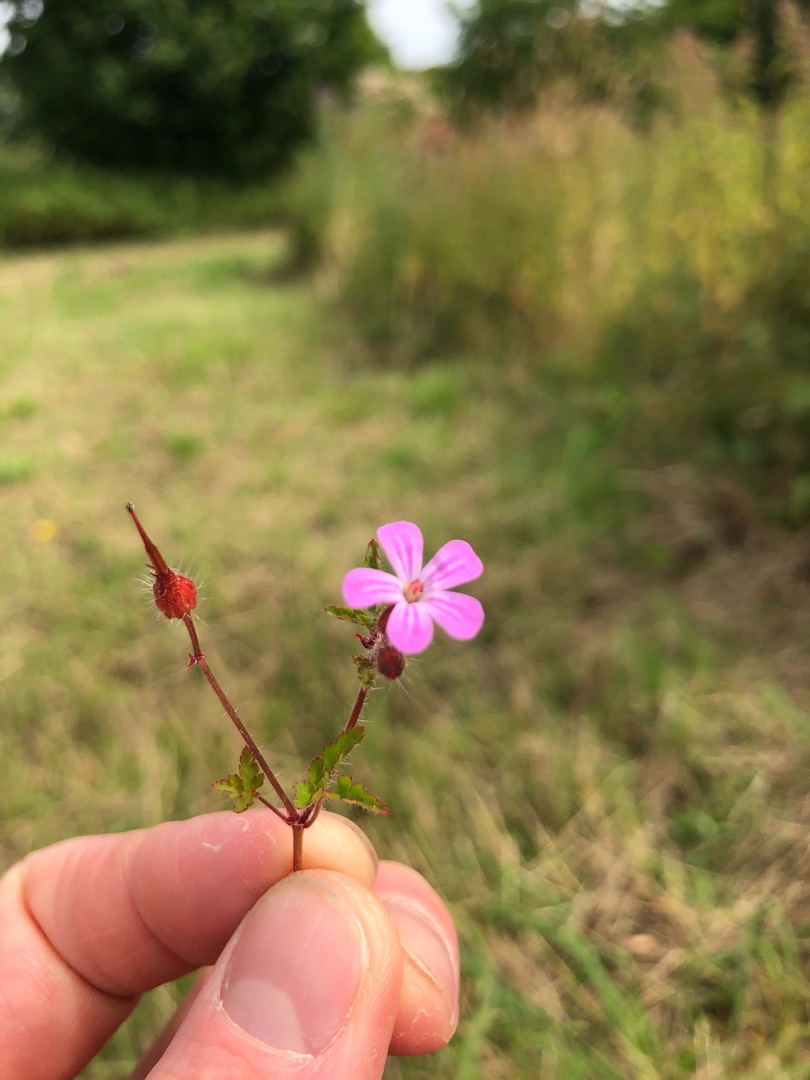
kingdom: Plantae
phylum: Tracheophyta
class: Magnoliopsida
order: Geraniales
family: Geraniaceae
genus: Geranium
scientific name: Geranium robertianum
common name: Stinkende storkenæb
